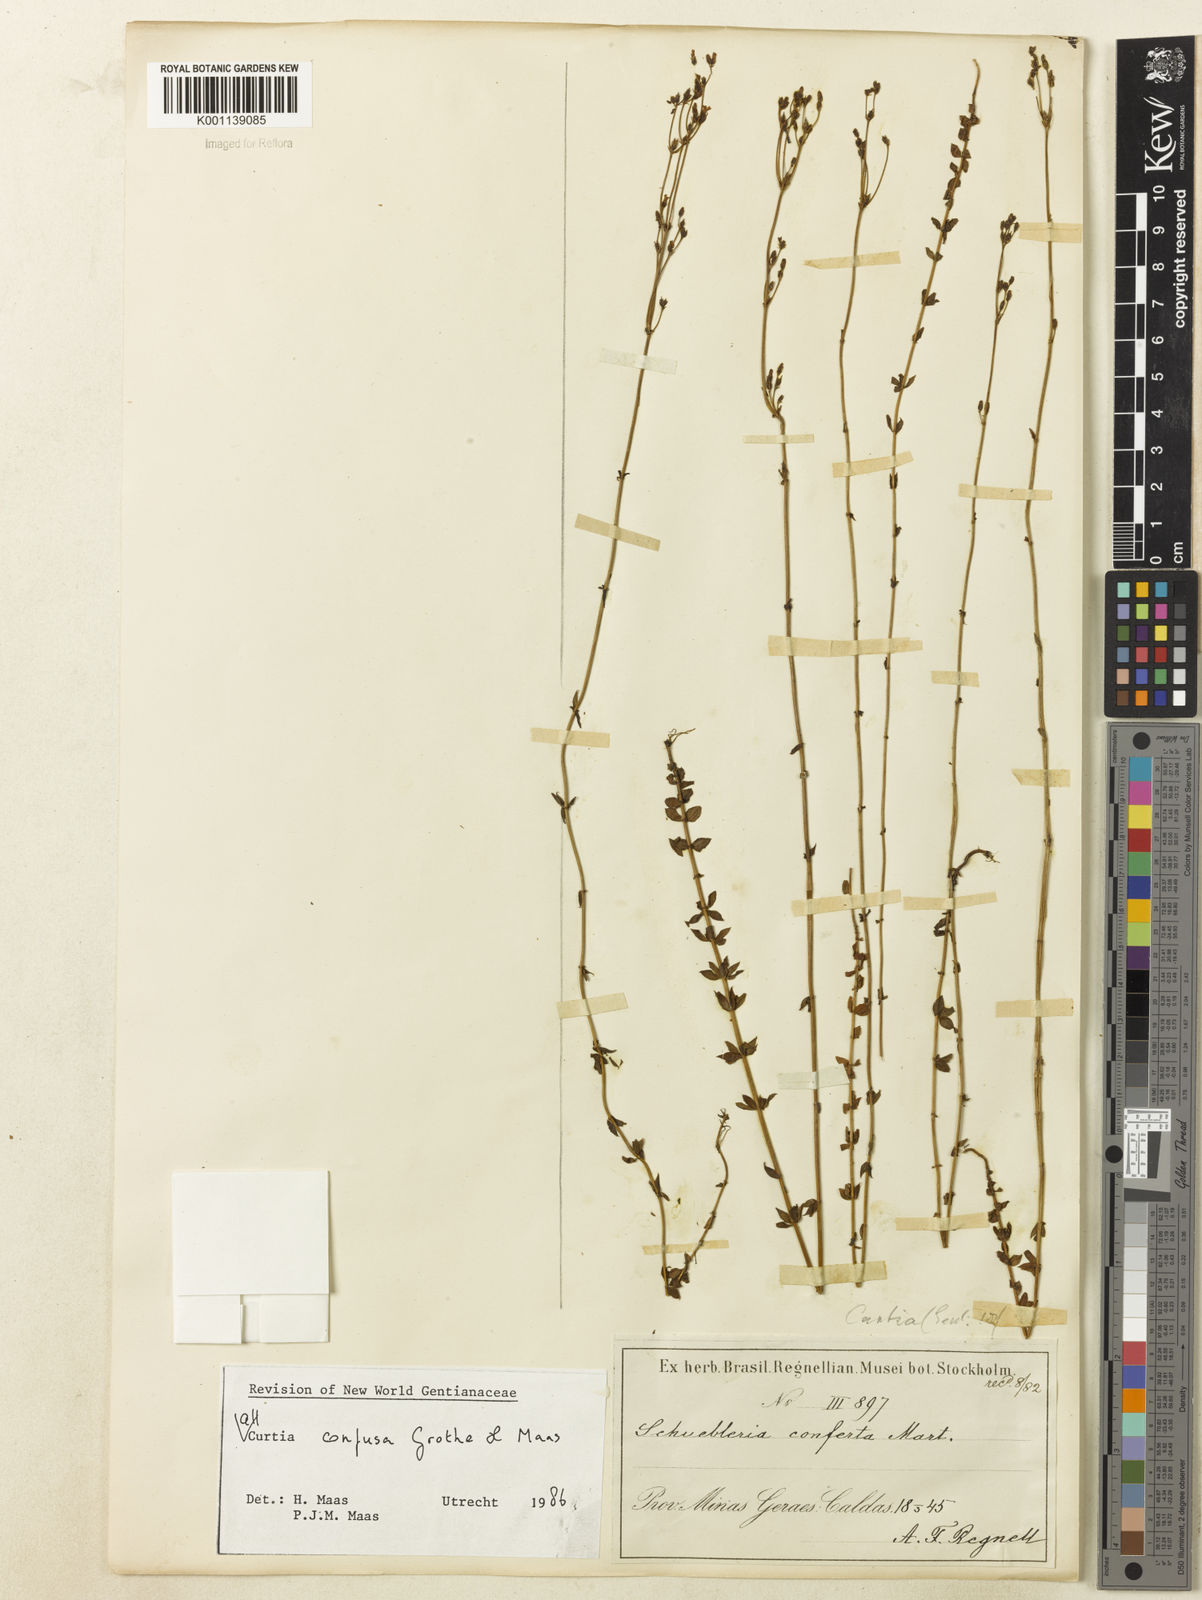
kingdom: Plantae
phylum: Tracheophyta
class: Magnoliopsida
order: Gentianales
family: Gentianaceae
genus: Curtia
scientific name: Curtia conferta
